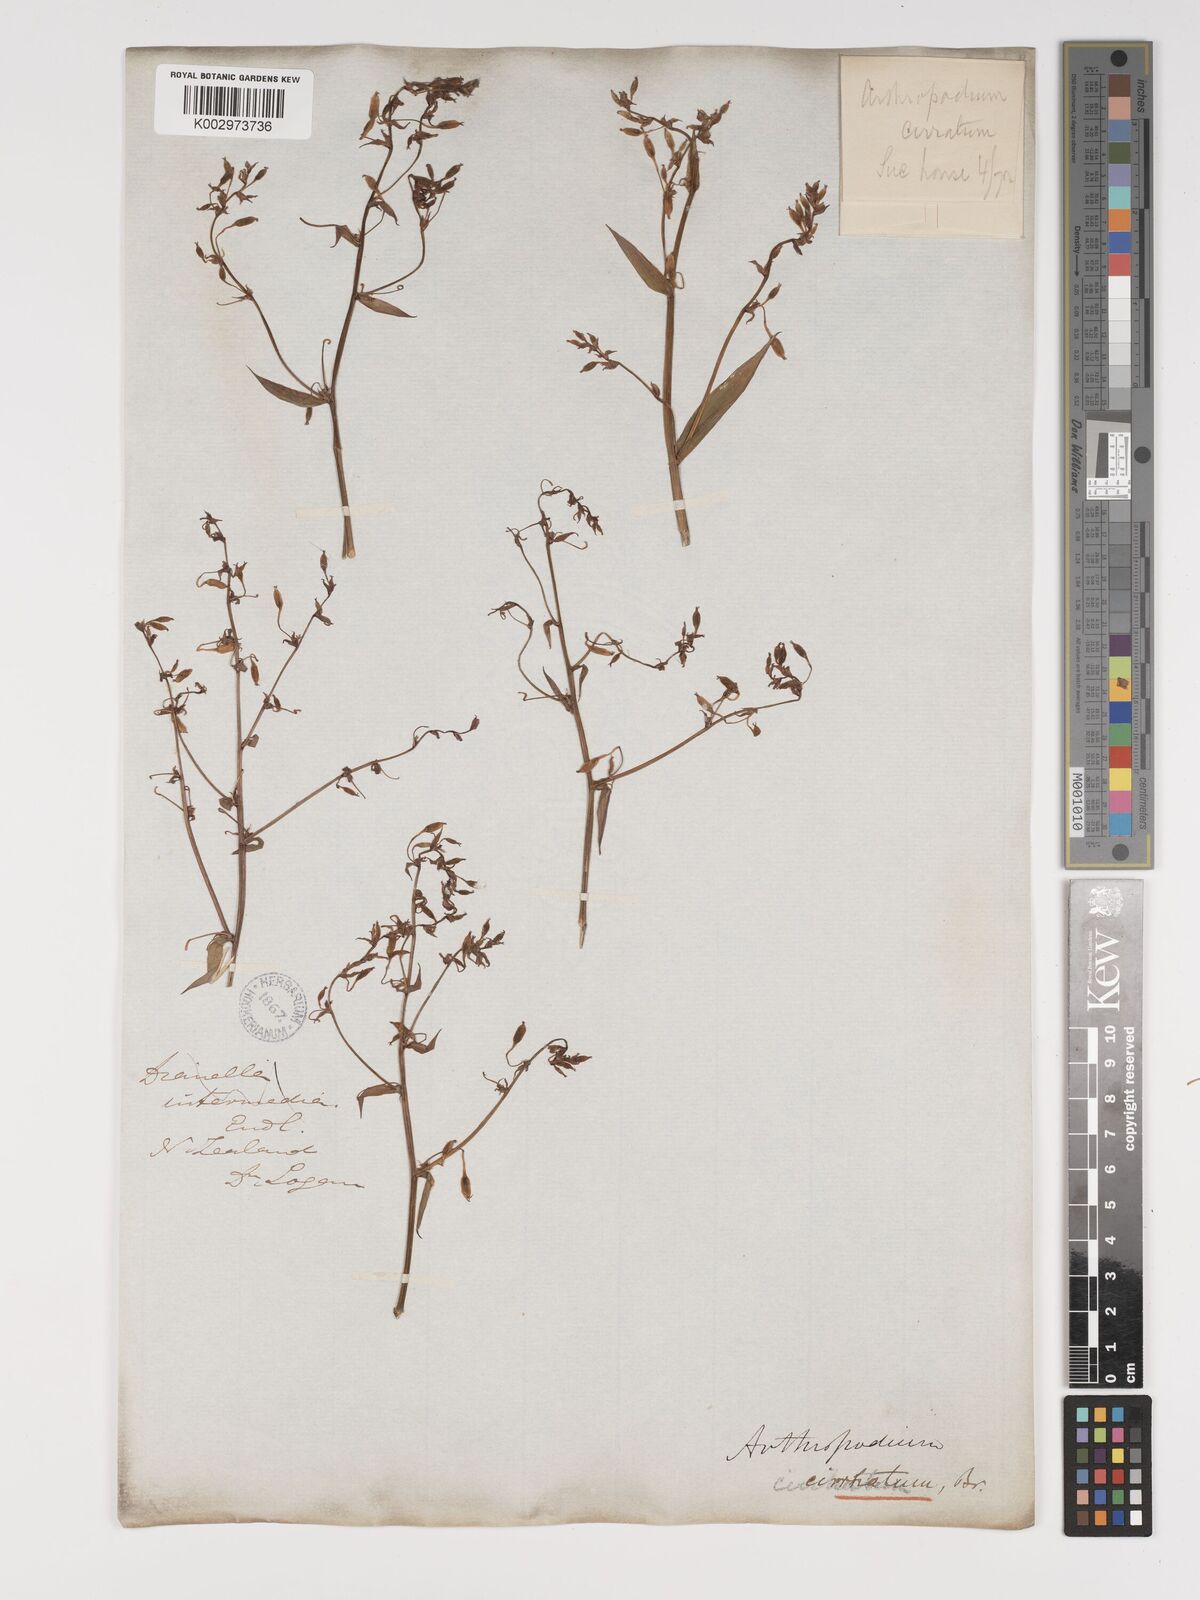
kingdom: Plantae
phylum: Tracheophyta
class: Liliopsida
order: Asparagales
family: Asparagaceae
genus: Arthropodium
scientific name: Arthropodium cirratum
